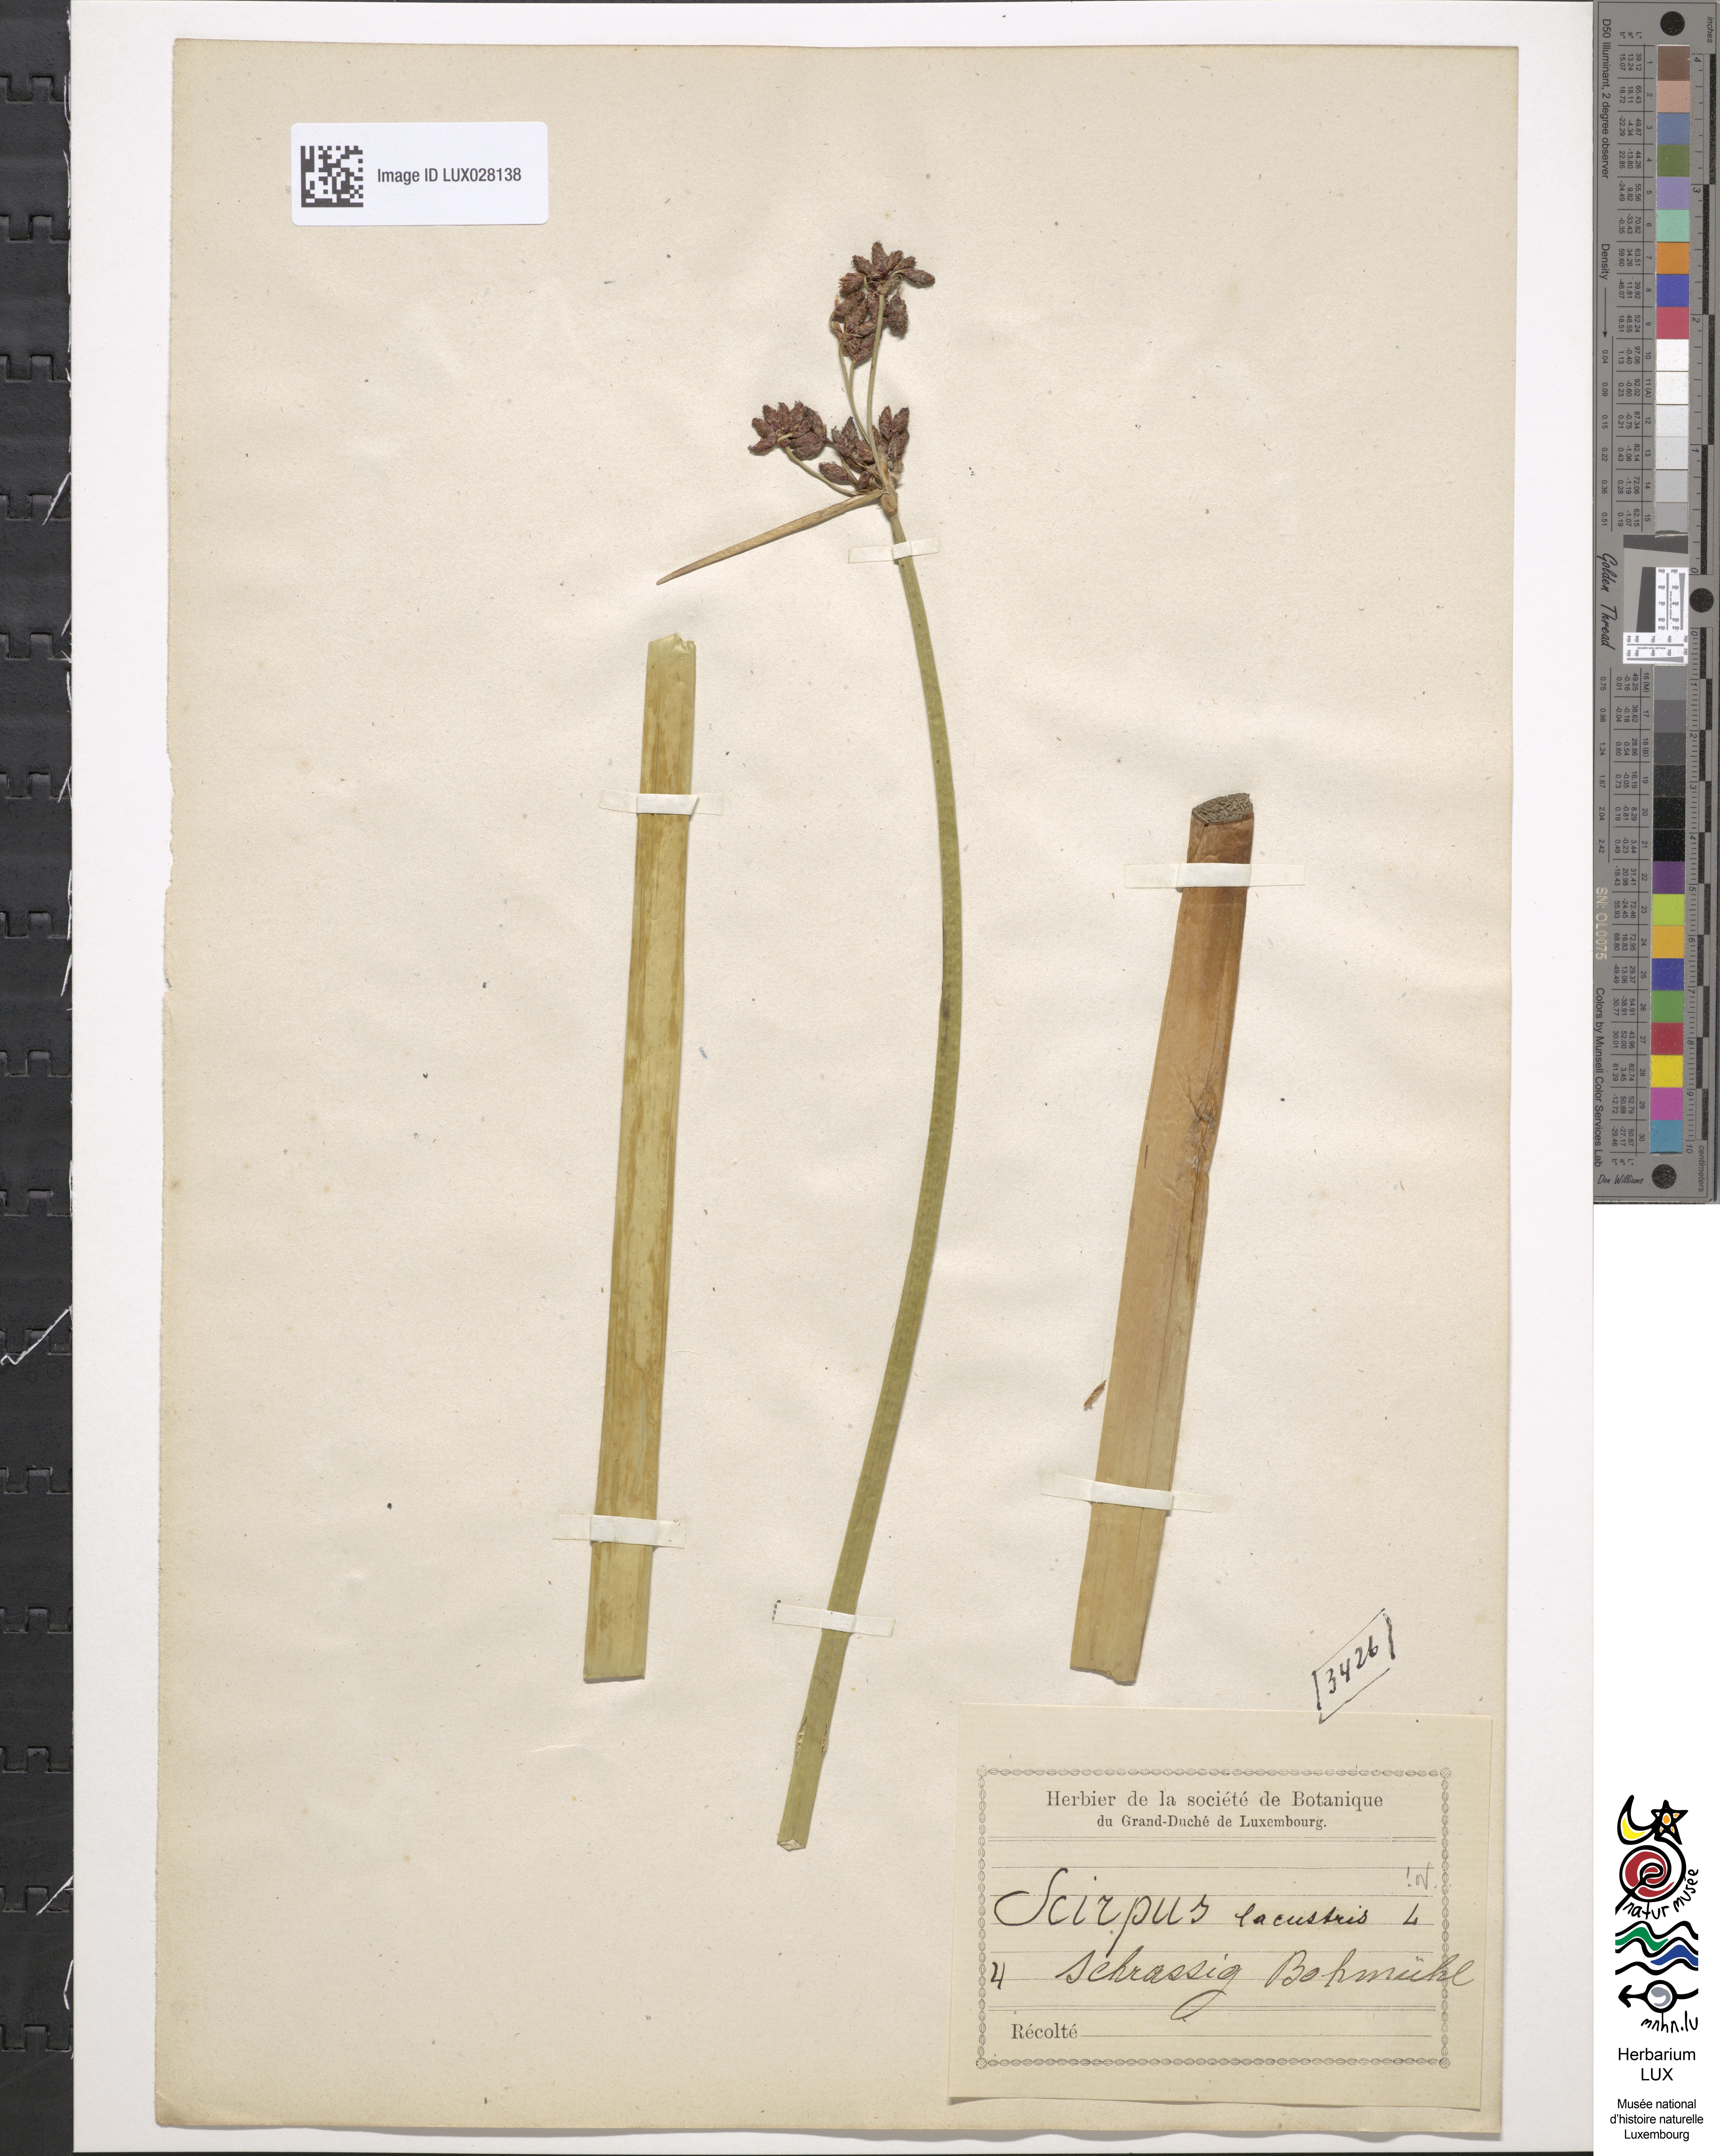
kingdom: Plantae
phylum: Tracheophyta
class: Liliopsida
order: Poales
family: Cyperaceae
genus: Schoenoplectus
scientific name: Schoenoplectus lacustris
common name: Common club-rush
